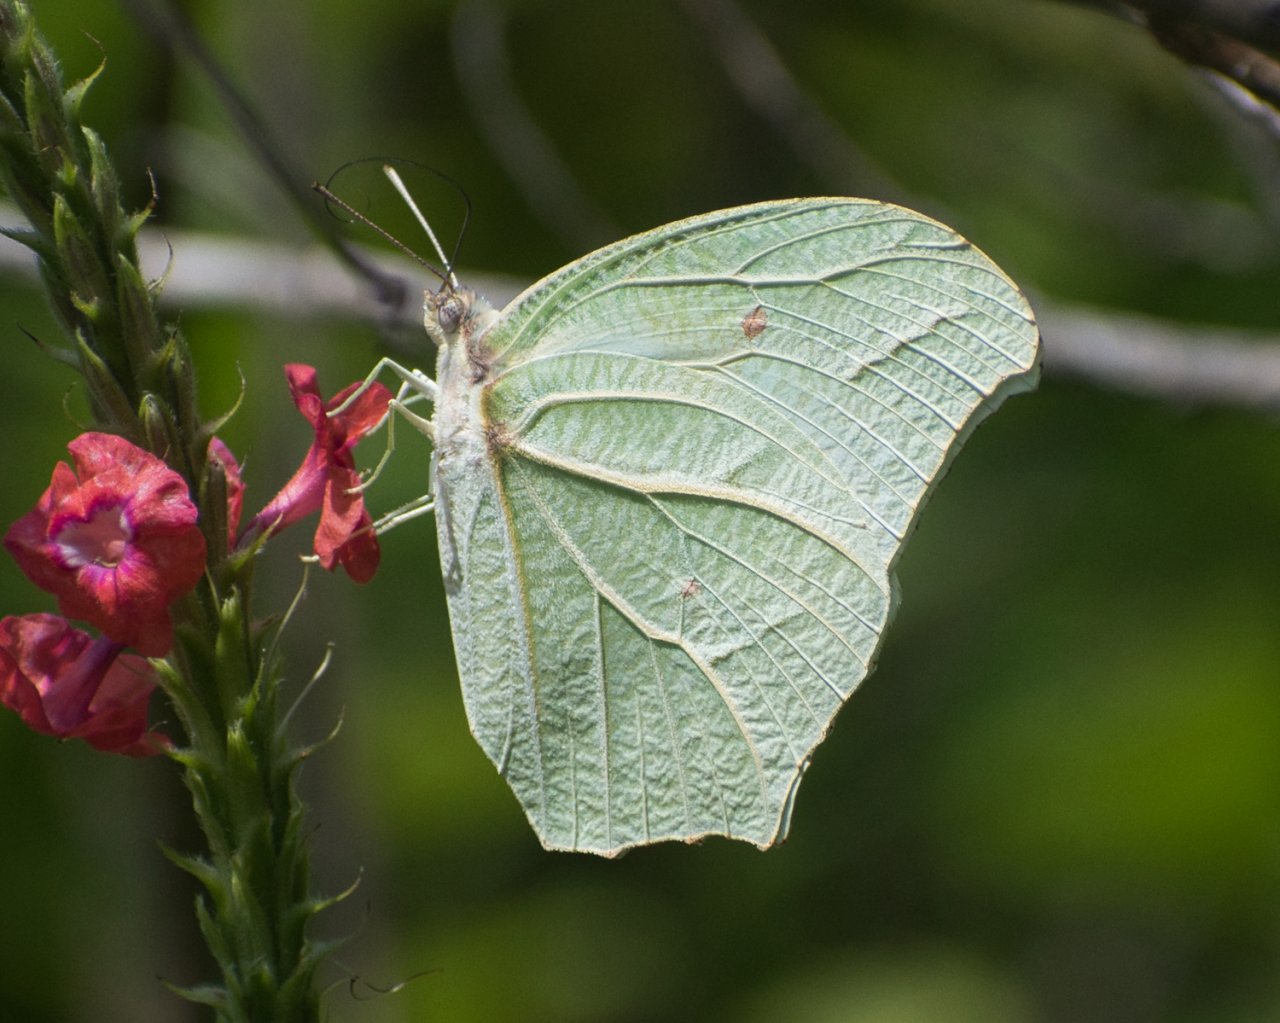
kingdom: Animalia
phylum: Arthropoda
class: Insecta
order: Lepidoptera
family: Pieridae
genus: Anteos
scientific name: Anteos clorinde
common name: White Angled-Sulphur
